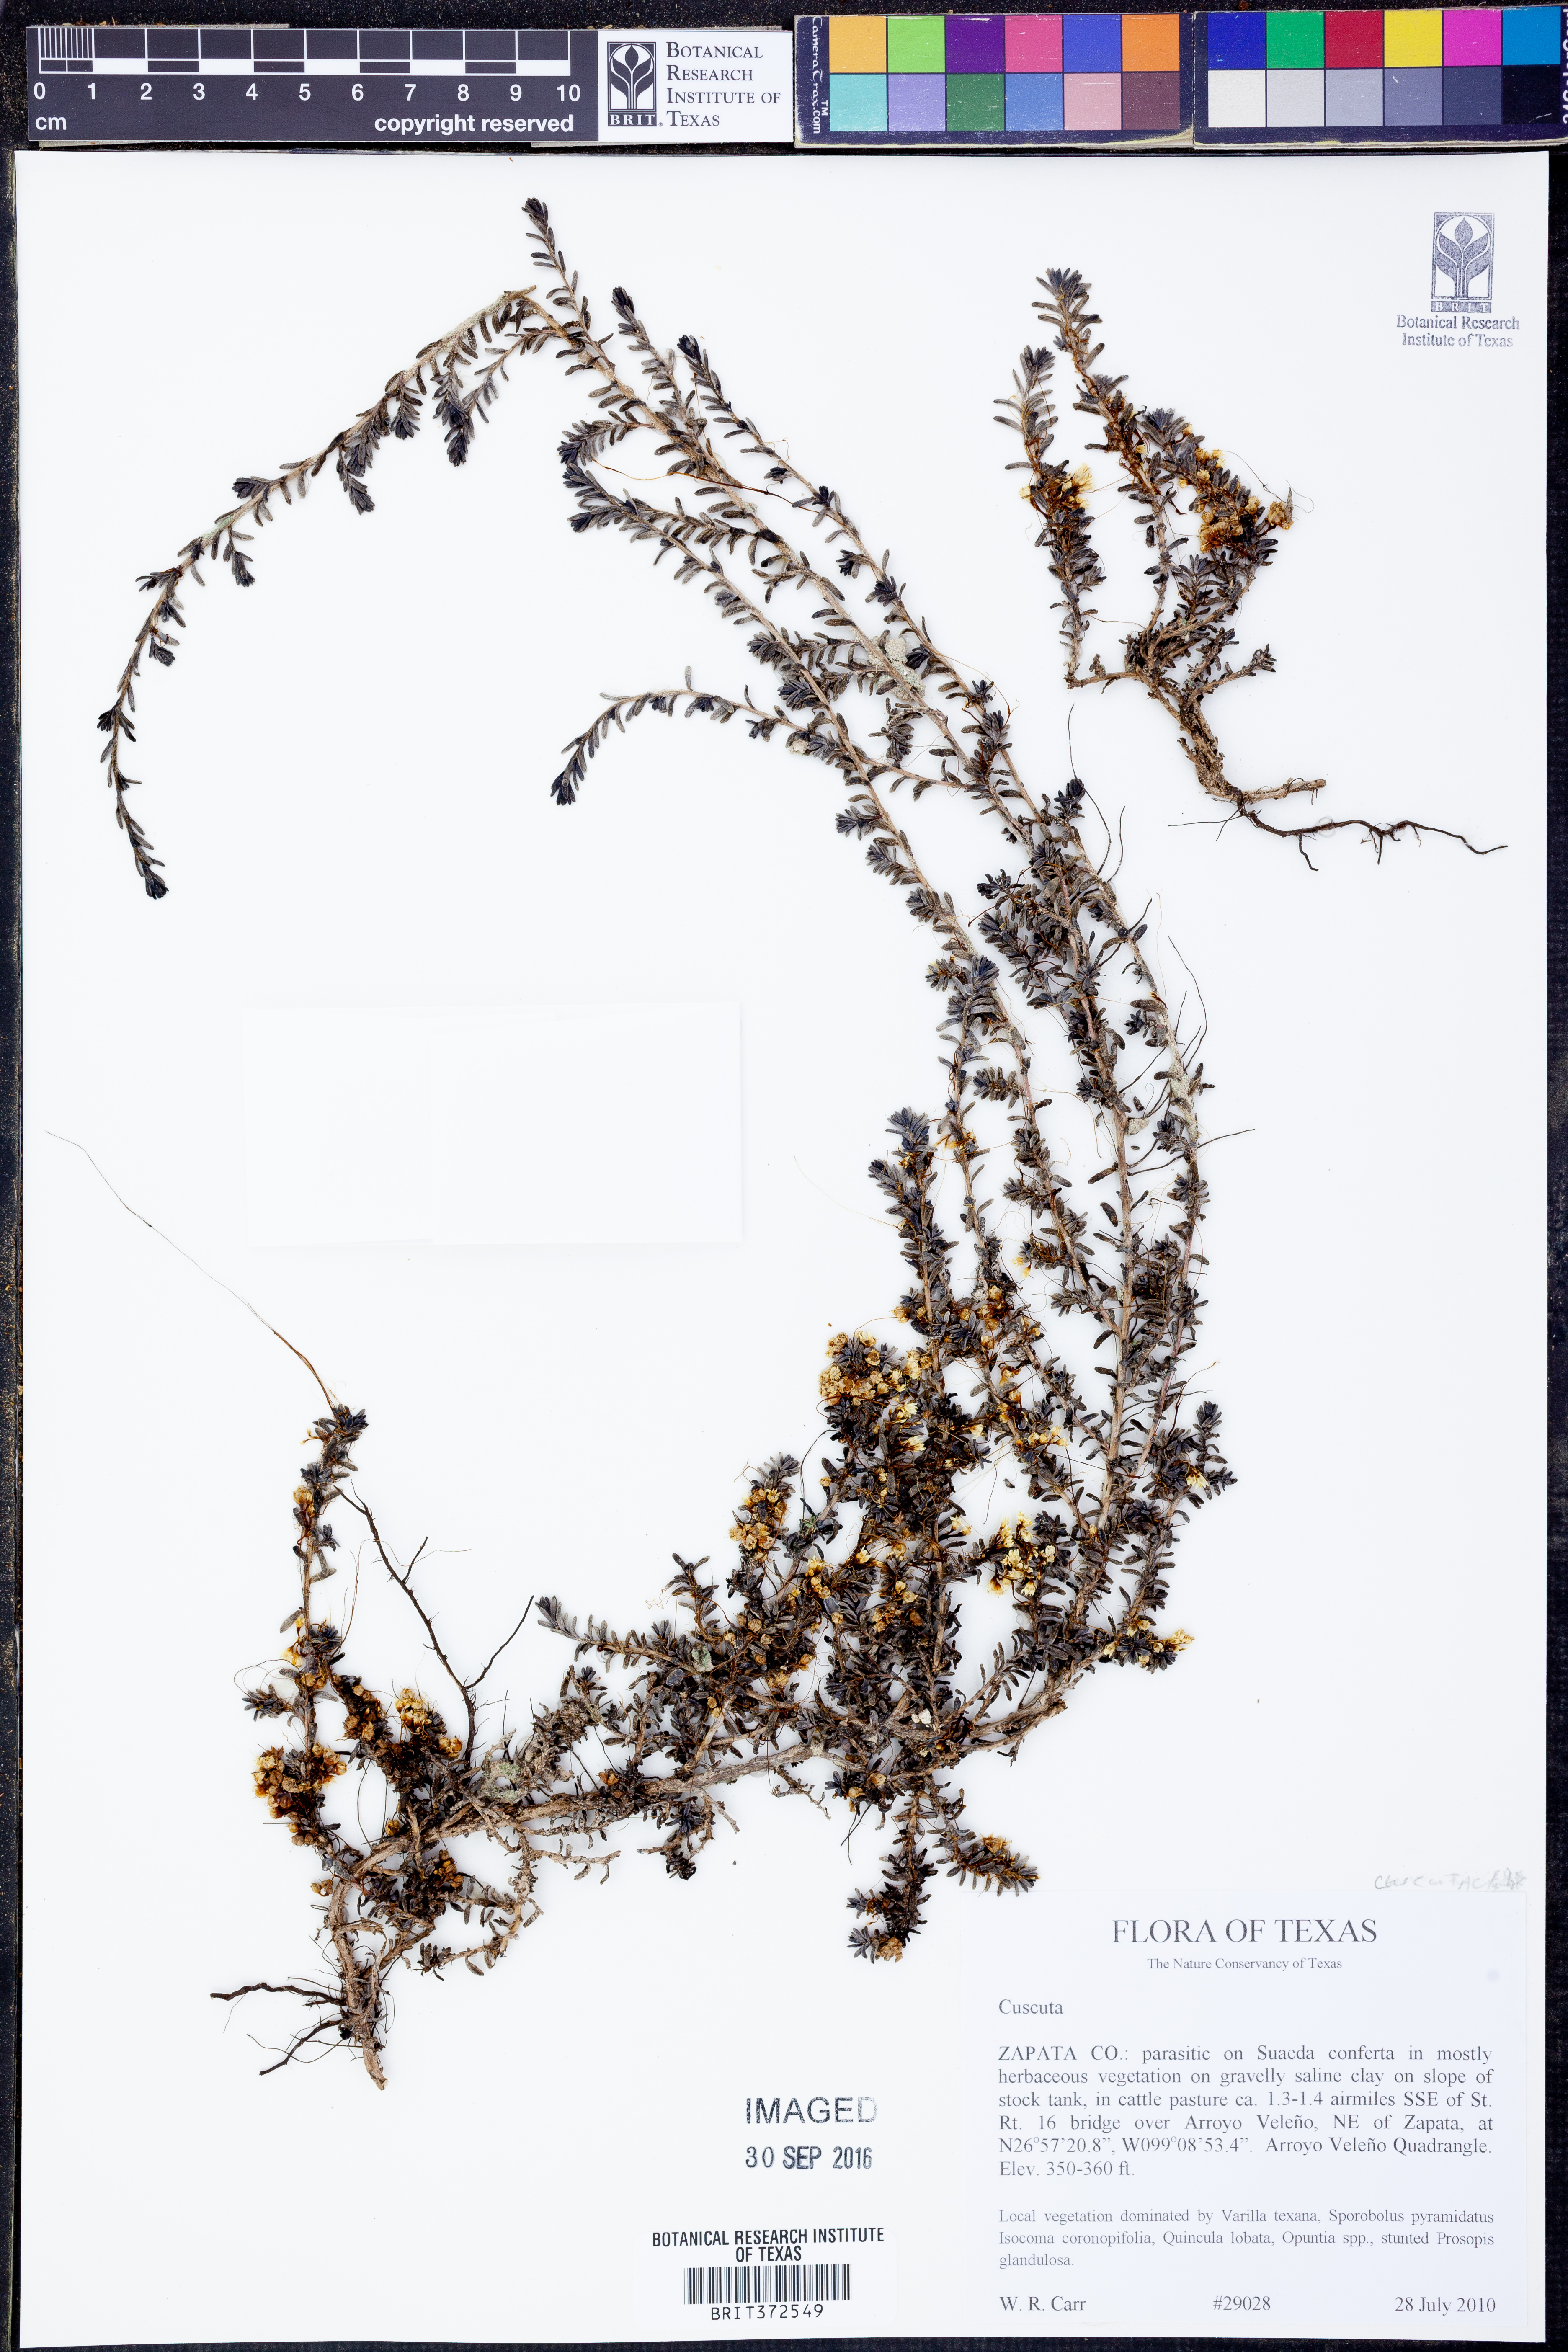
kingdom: Plantae
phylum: Tracheophyta
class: Magnoliopsida
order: Solanales
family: Convolvulaceae
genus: Cuscuta
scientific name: Cuscuta
